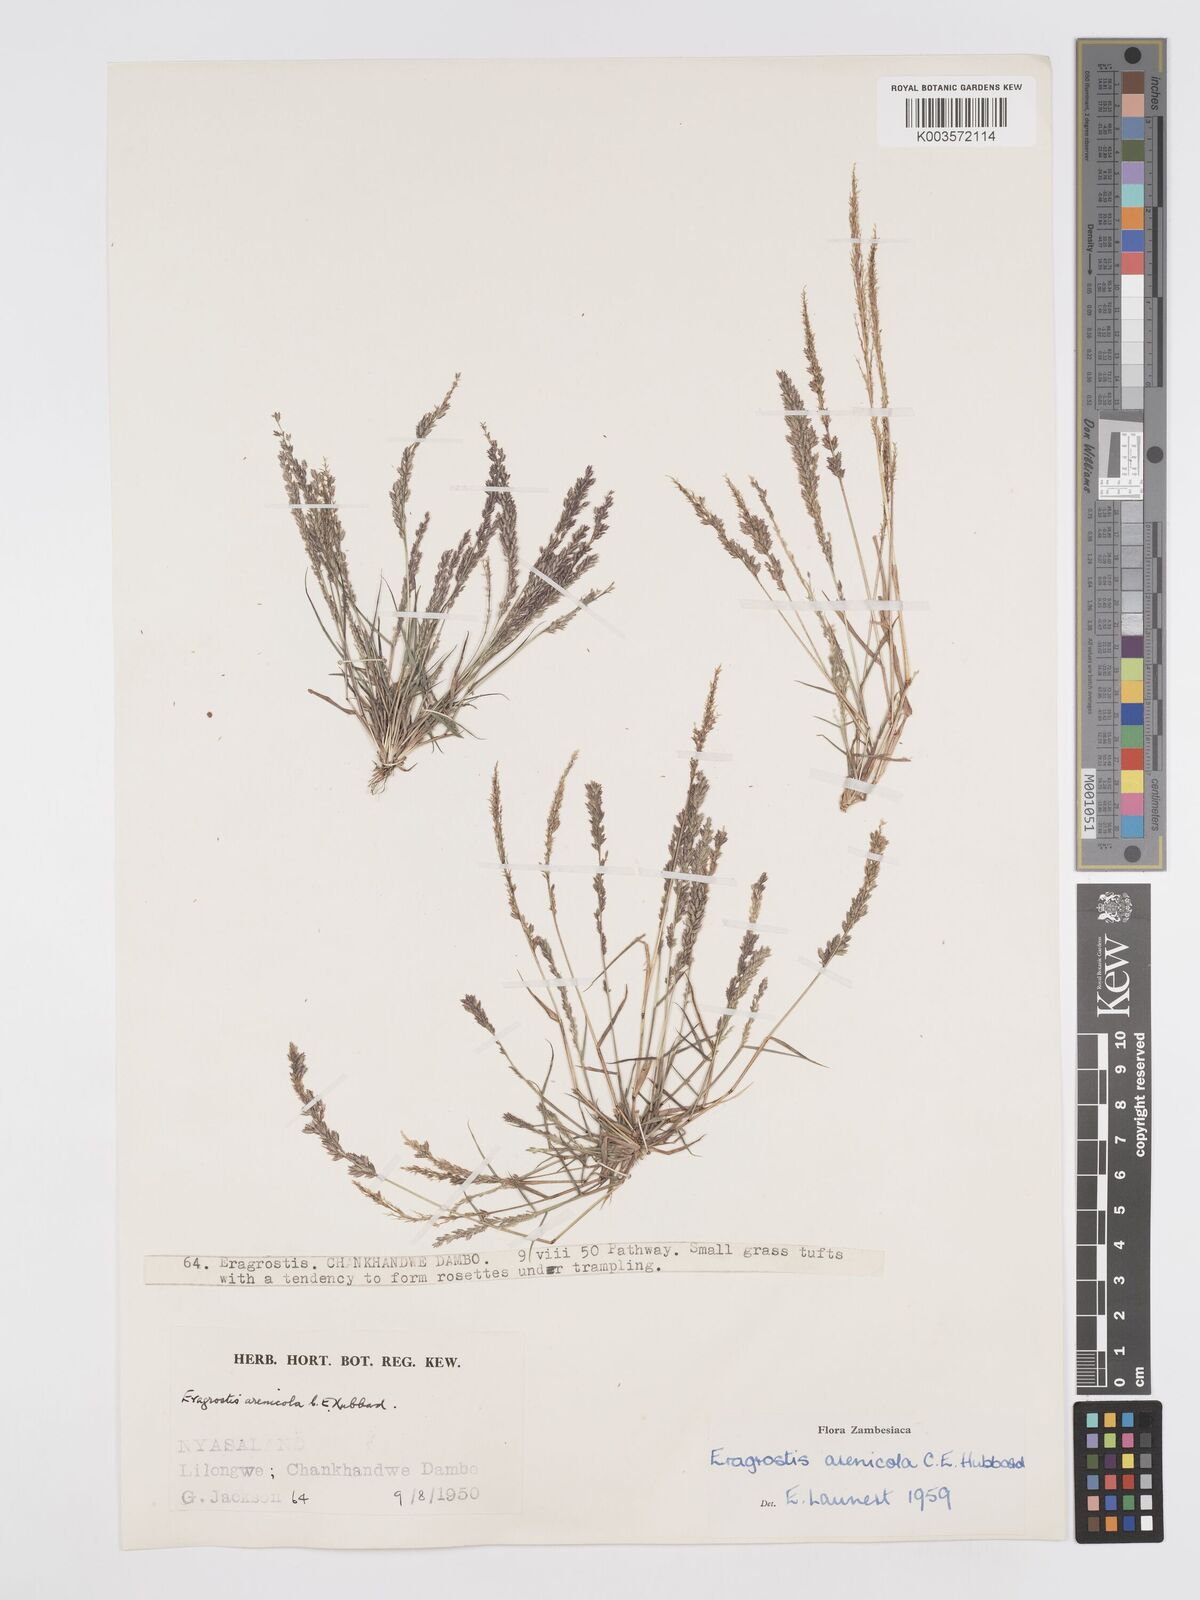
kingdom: Plantae
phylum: Tracheophyta
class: Liliopsida
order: Poales
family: Poaceae
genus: Eragrostis
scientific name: Eragrostis arenicola
